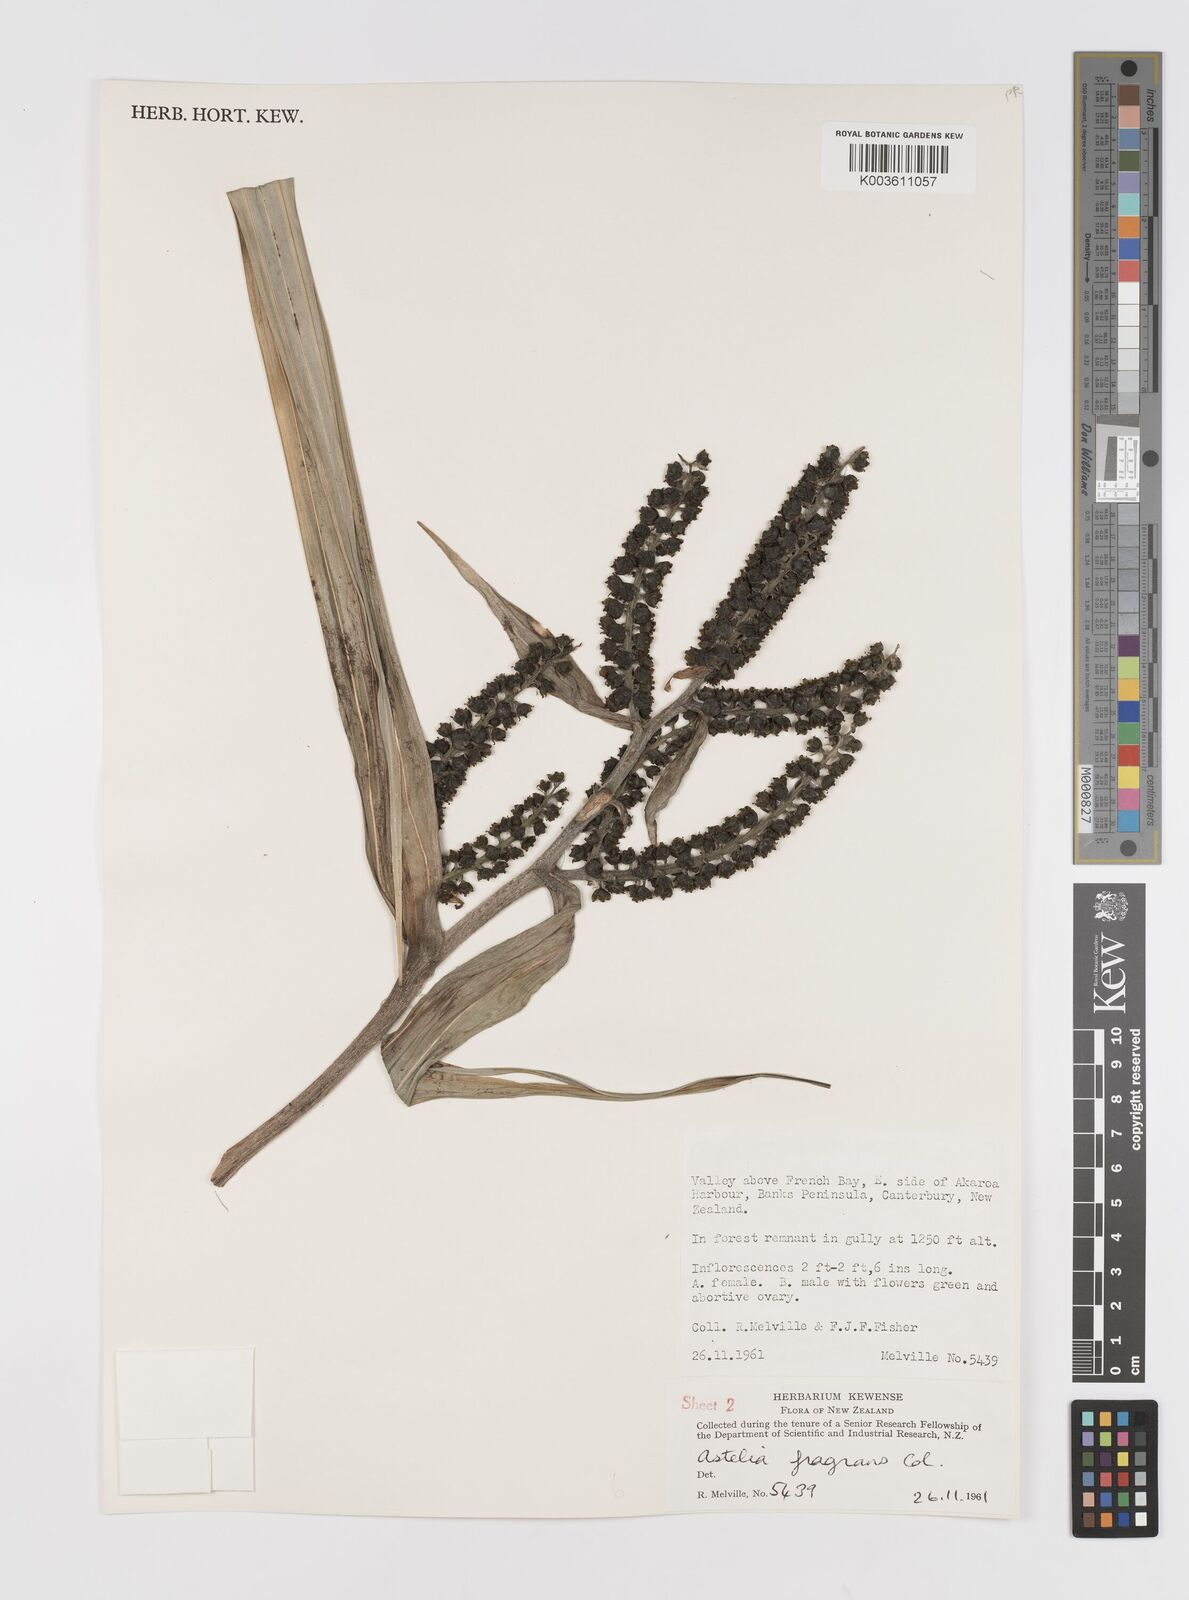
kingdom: Plantae
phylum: Tracheophyta
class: Liliopsida
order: Asparagales
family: Asteliaceae
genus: Astelia
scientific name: Astelia fragrans
